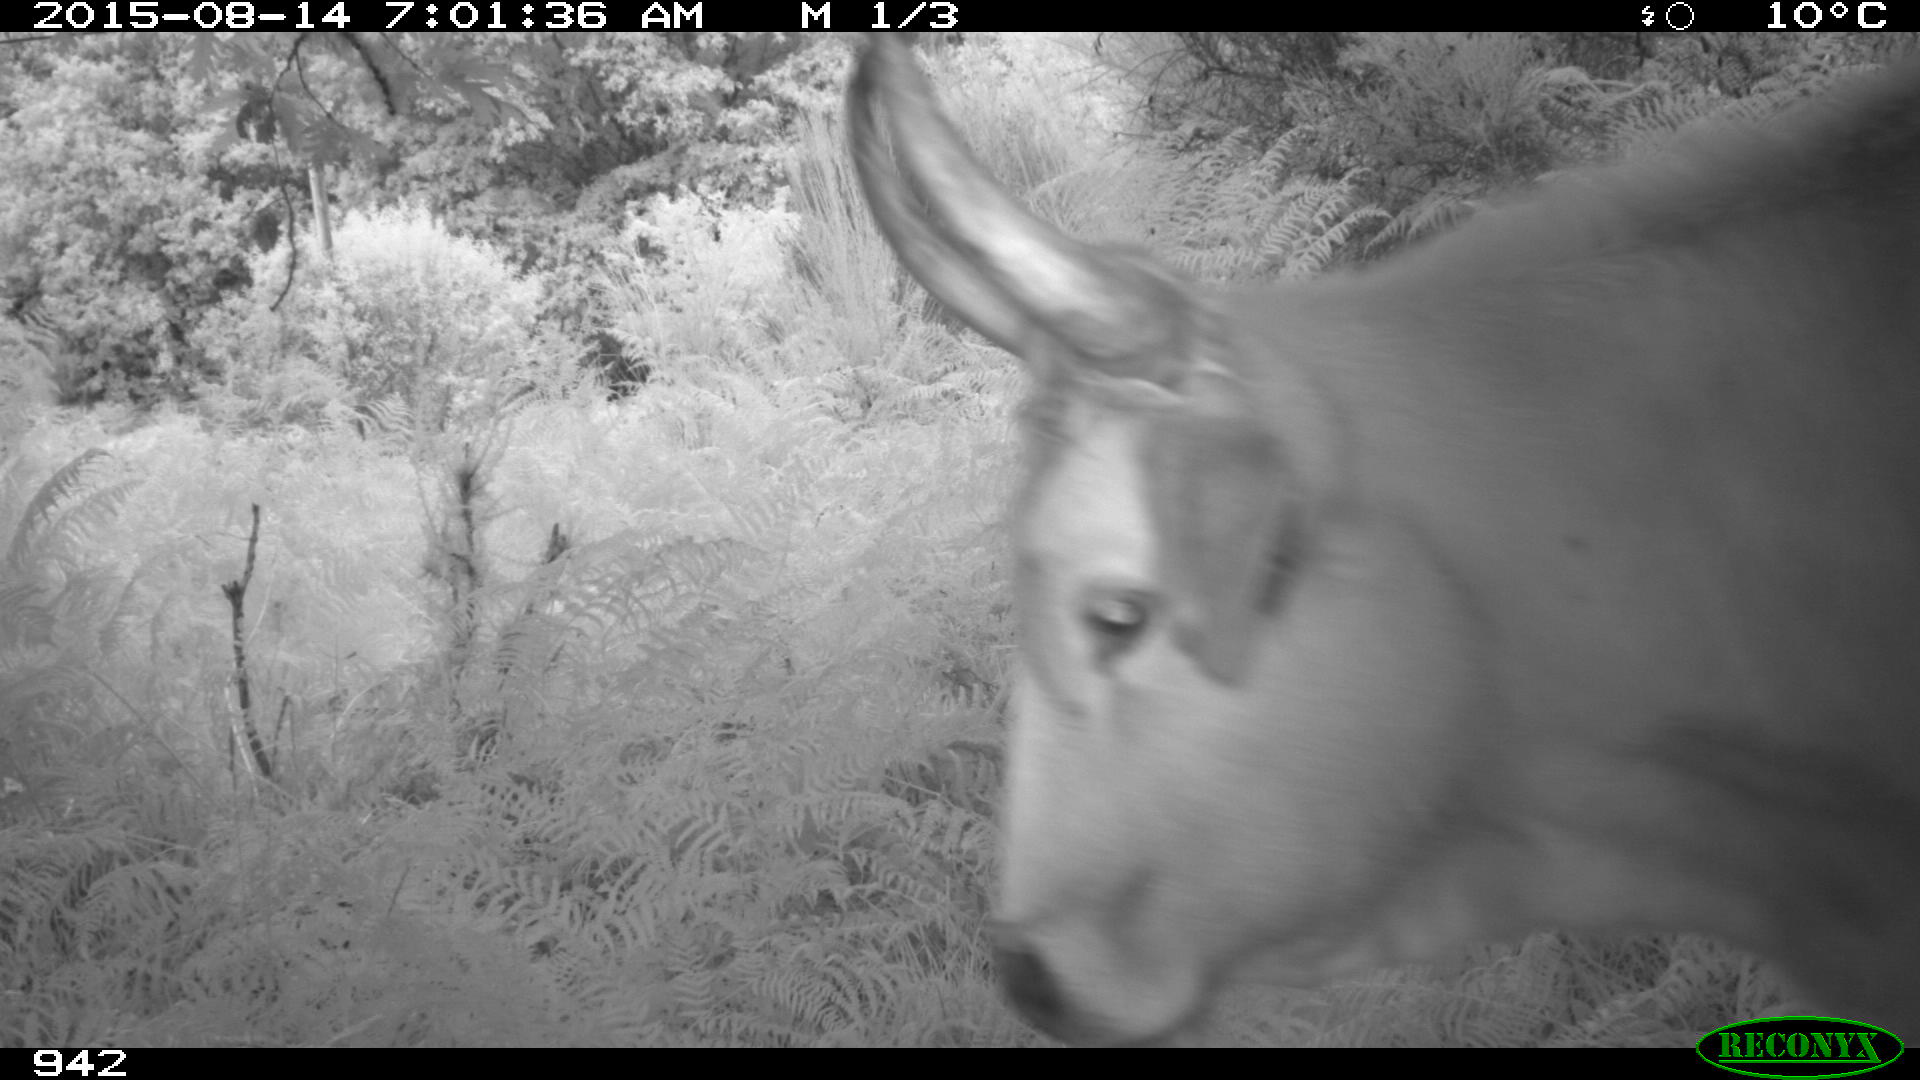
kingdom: Animalia
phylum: Chordata
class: Mammalia
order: Artiodactyla
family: Bovidae
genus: Bos
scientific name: Bos taurus
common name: Domesticated cattle
